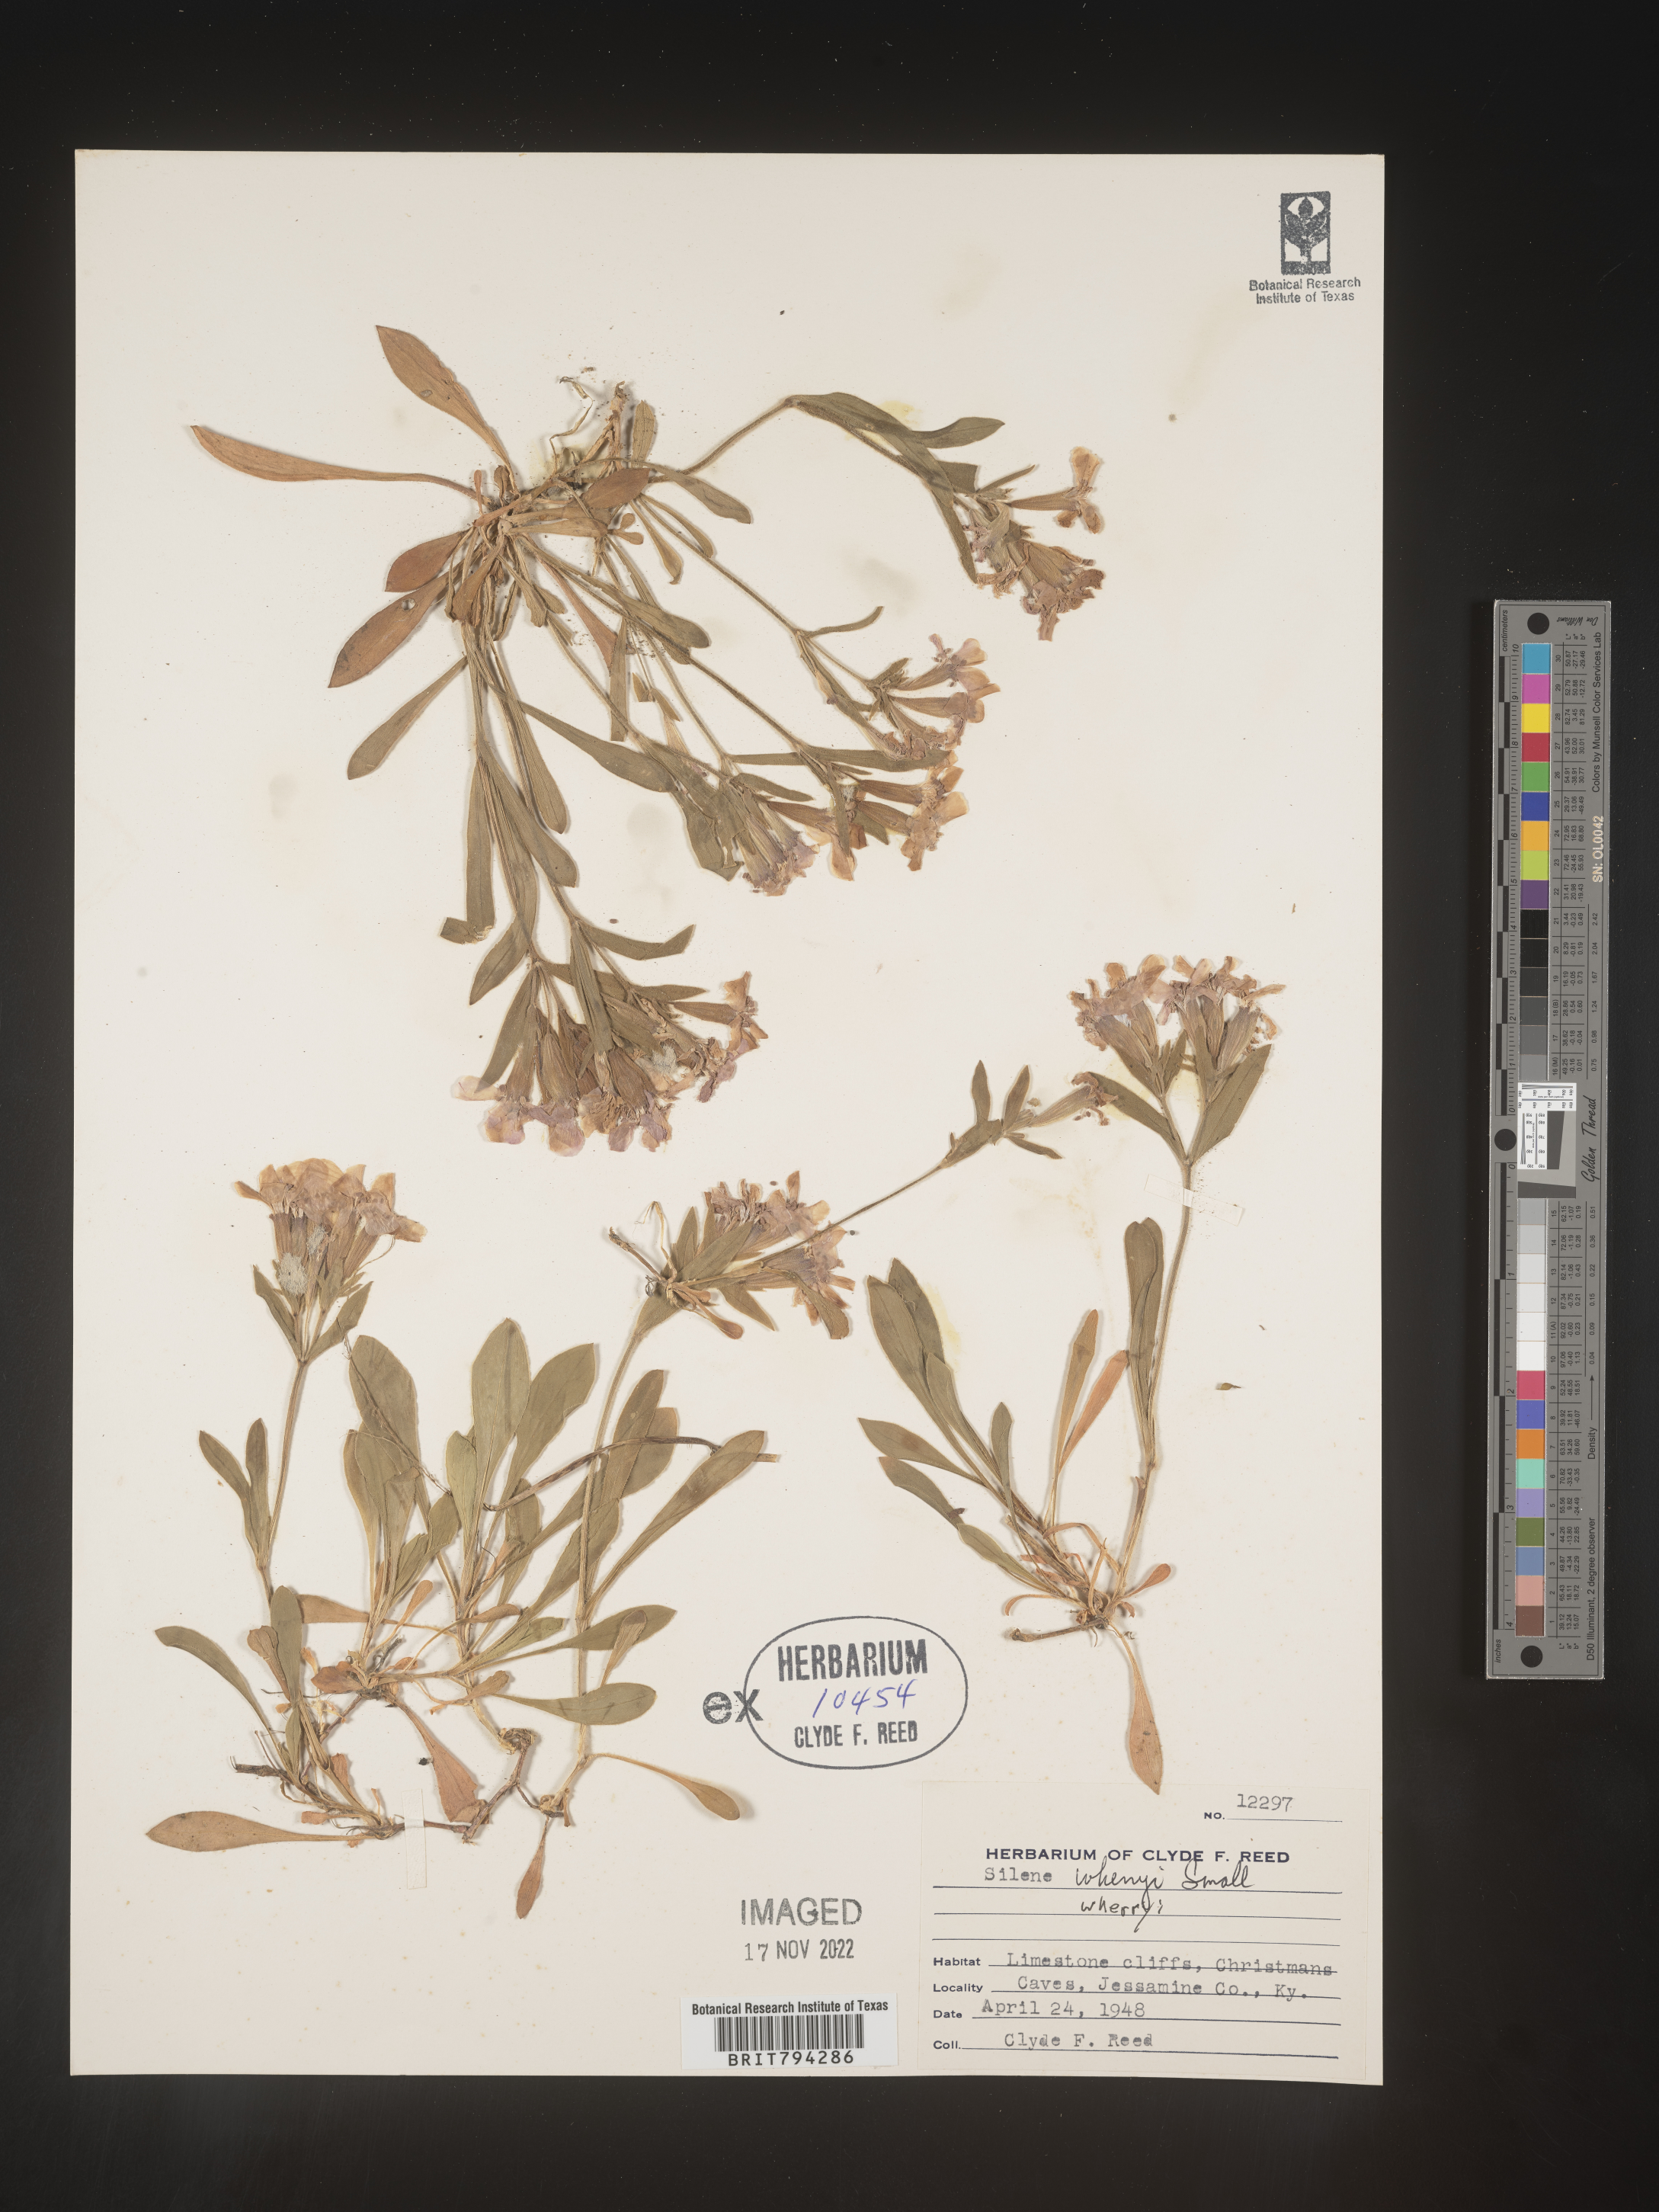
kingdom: Plantae
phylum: Tracheophyta
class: Magnoliopsida
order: Caryophyllales
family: Caryophyllaceae
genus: Silene
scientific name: Silene caroliniana
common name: Sticky catchfly
